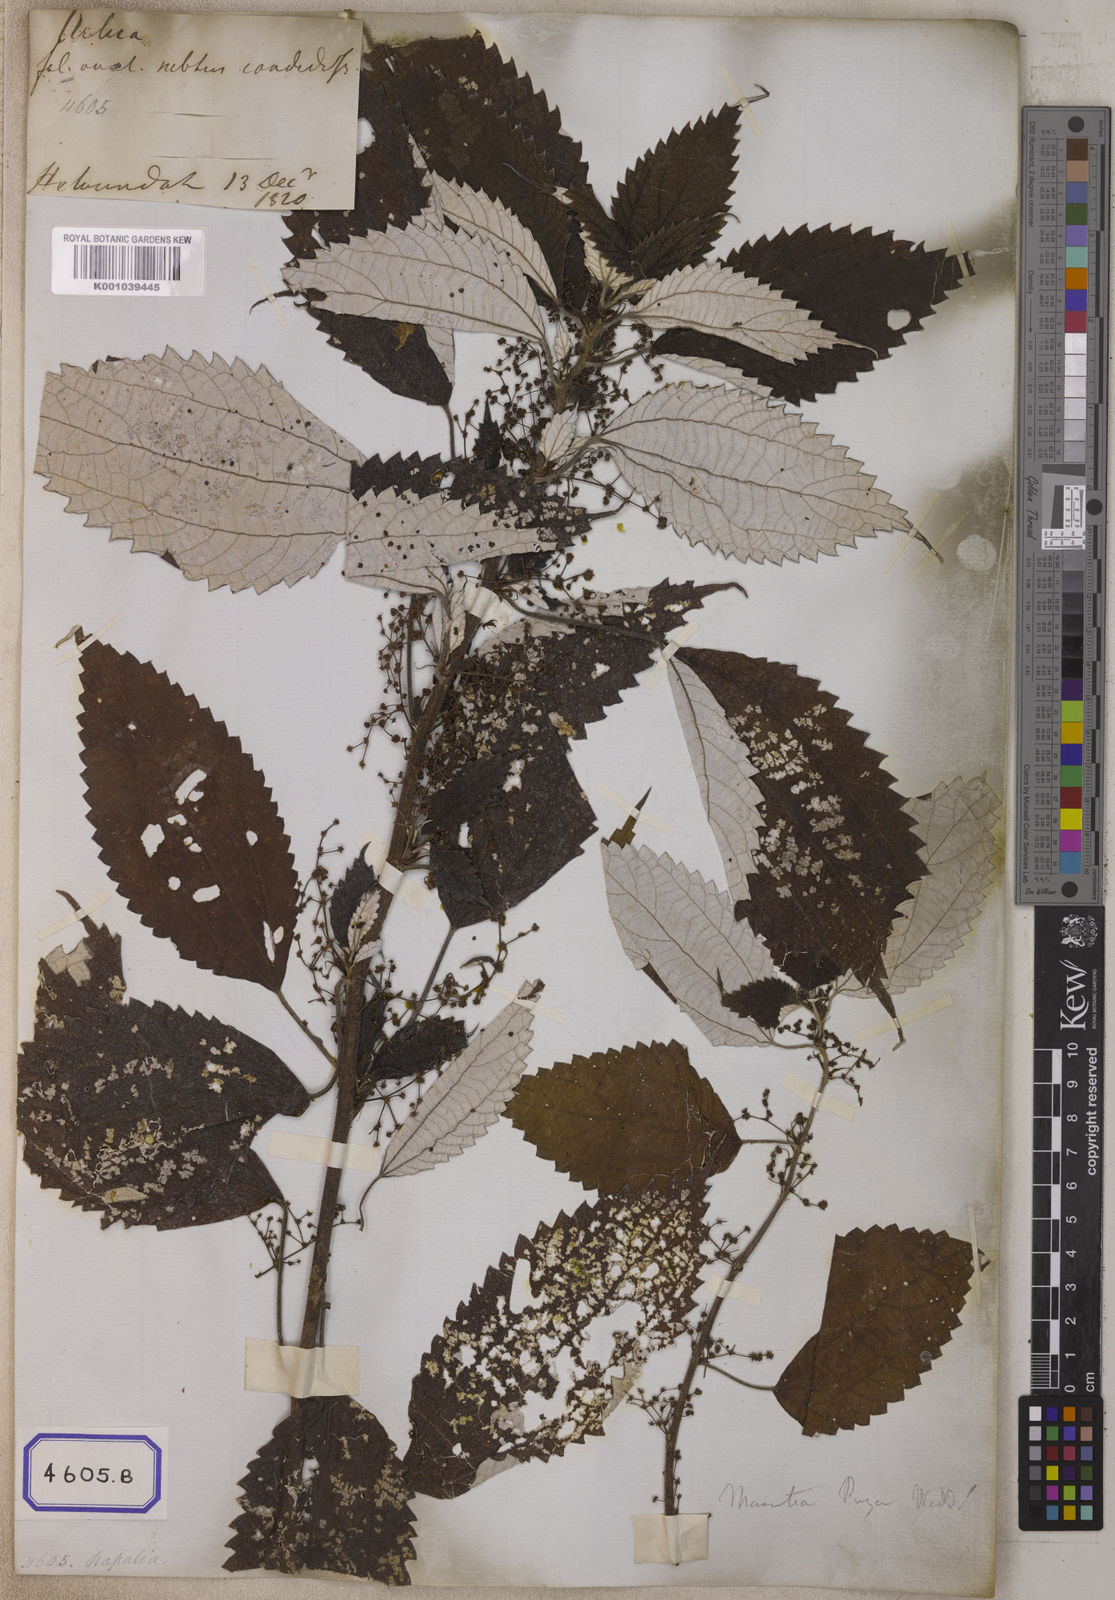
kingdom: Plantae
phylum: Tracheophyta
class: Magnoliopsida
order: Rosales
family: Urticaceae
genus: Leucosyke
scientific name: Leucosyke puya
